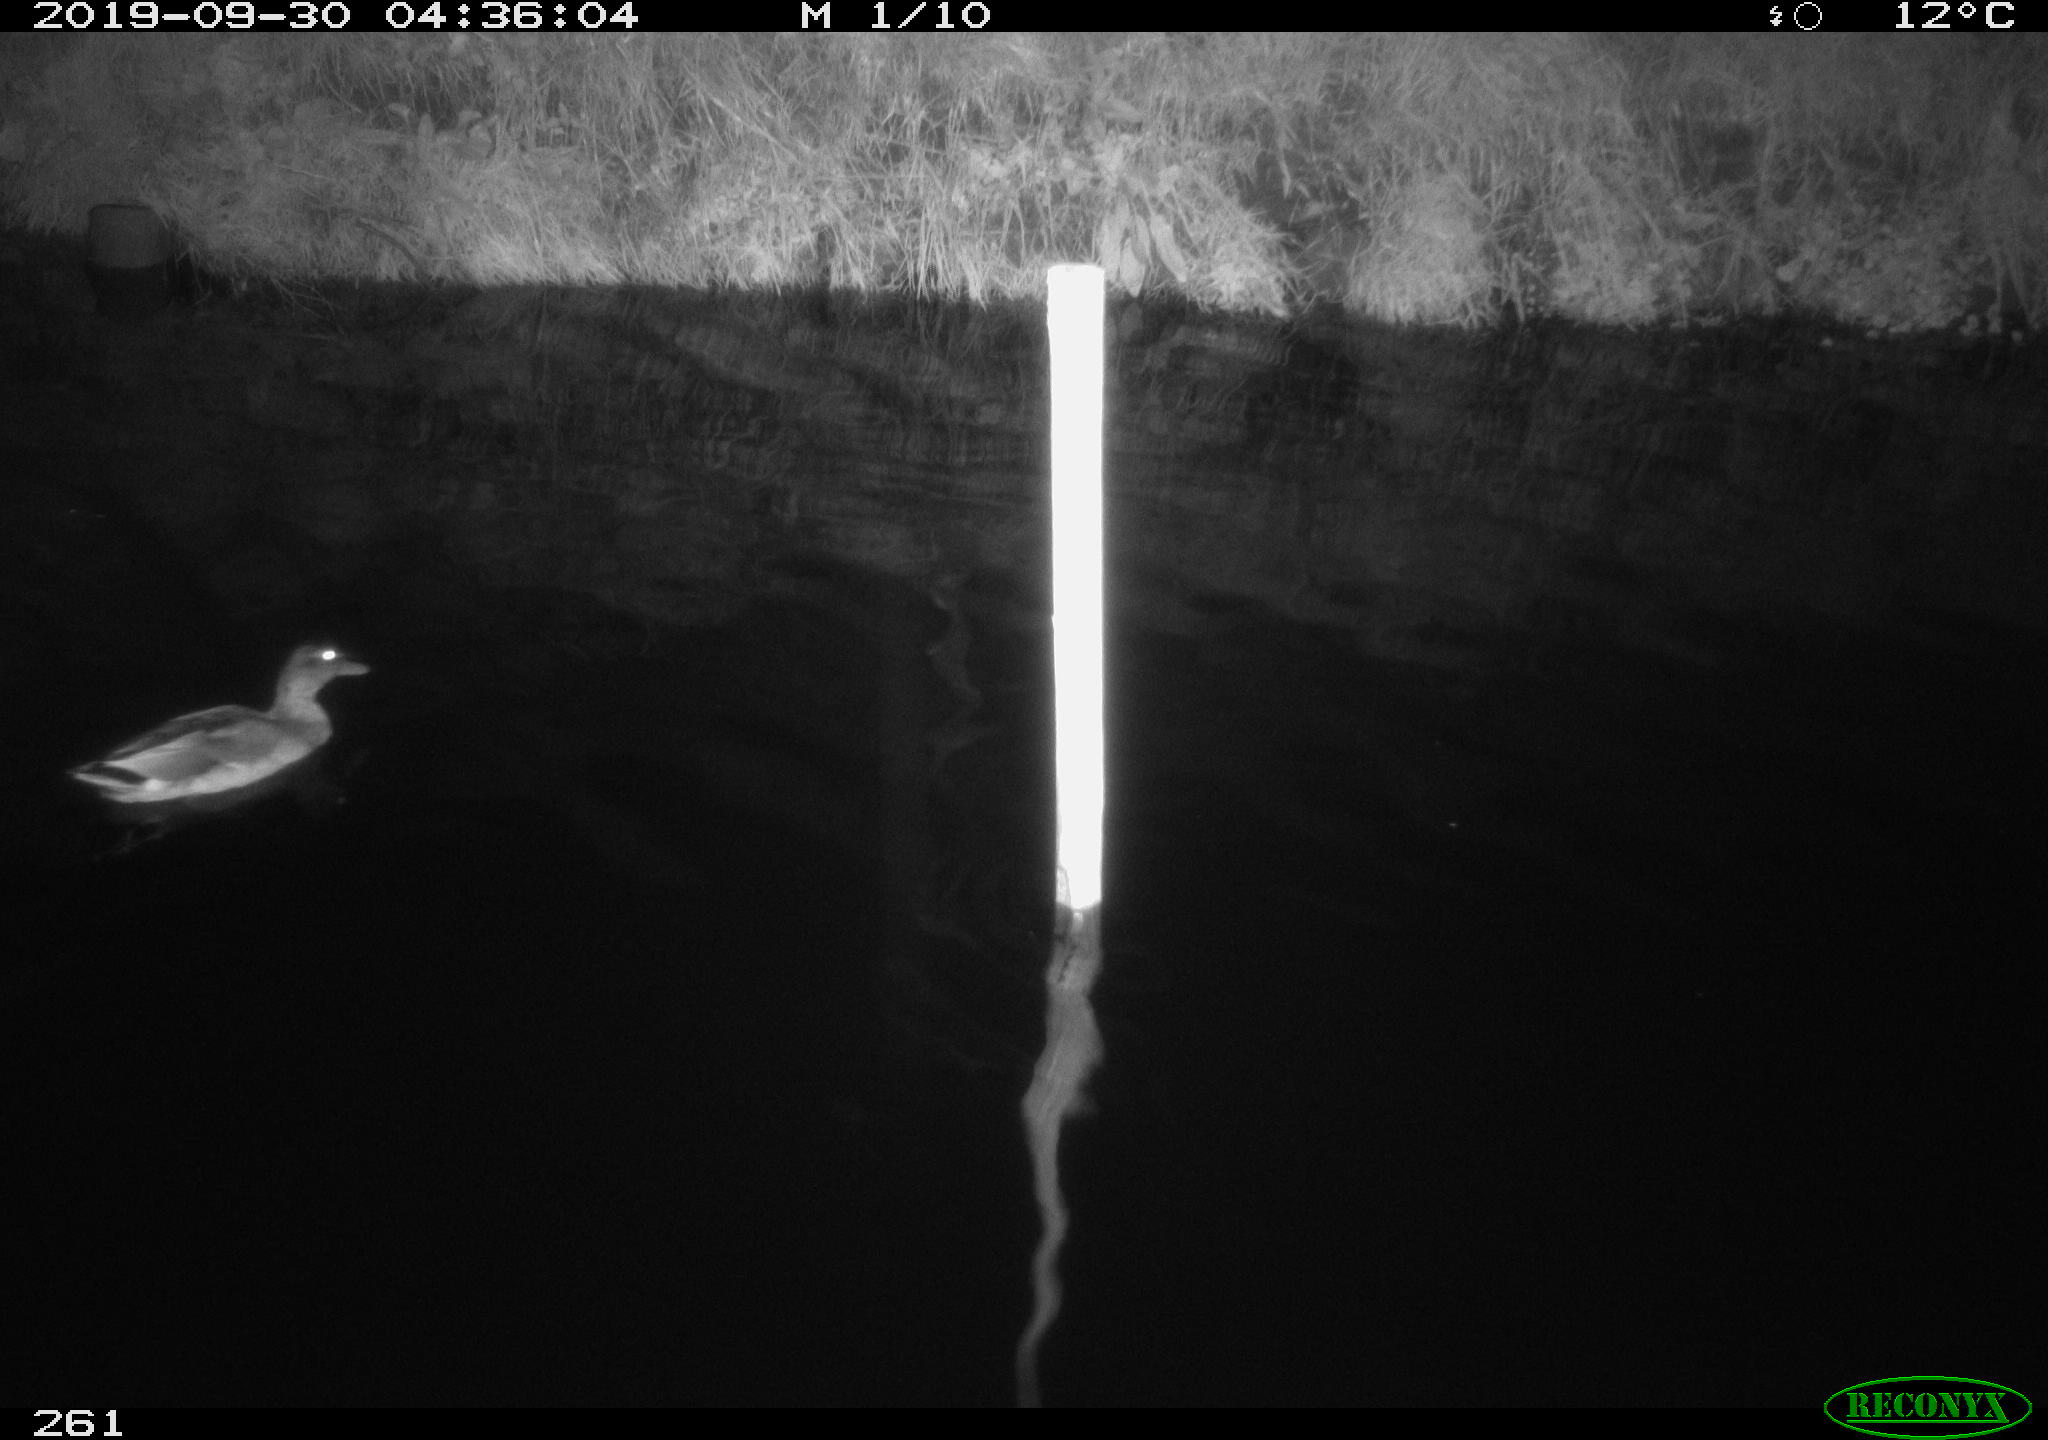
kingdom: Animalia
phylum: Chordata
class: Aves
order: Anseriformes
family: Anatidae
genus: Anas
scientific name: Anas platyrhynchos
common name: Mallard
